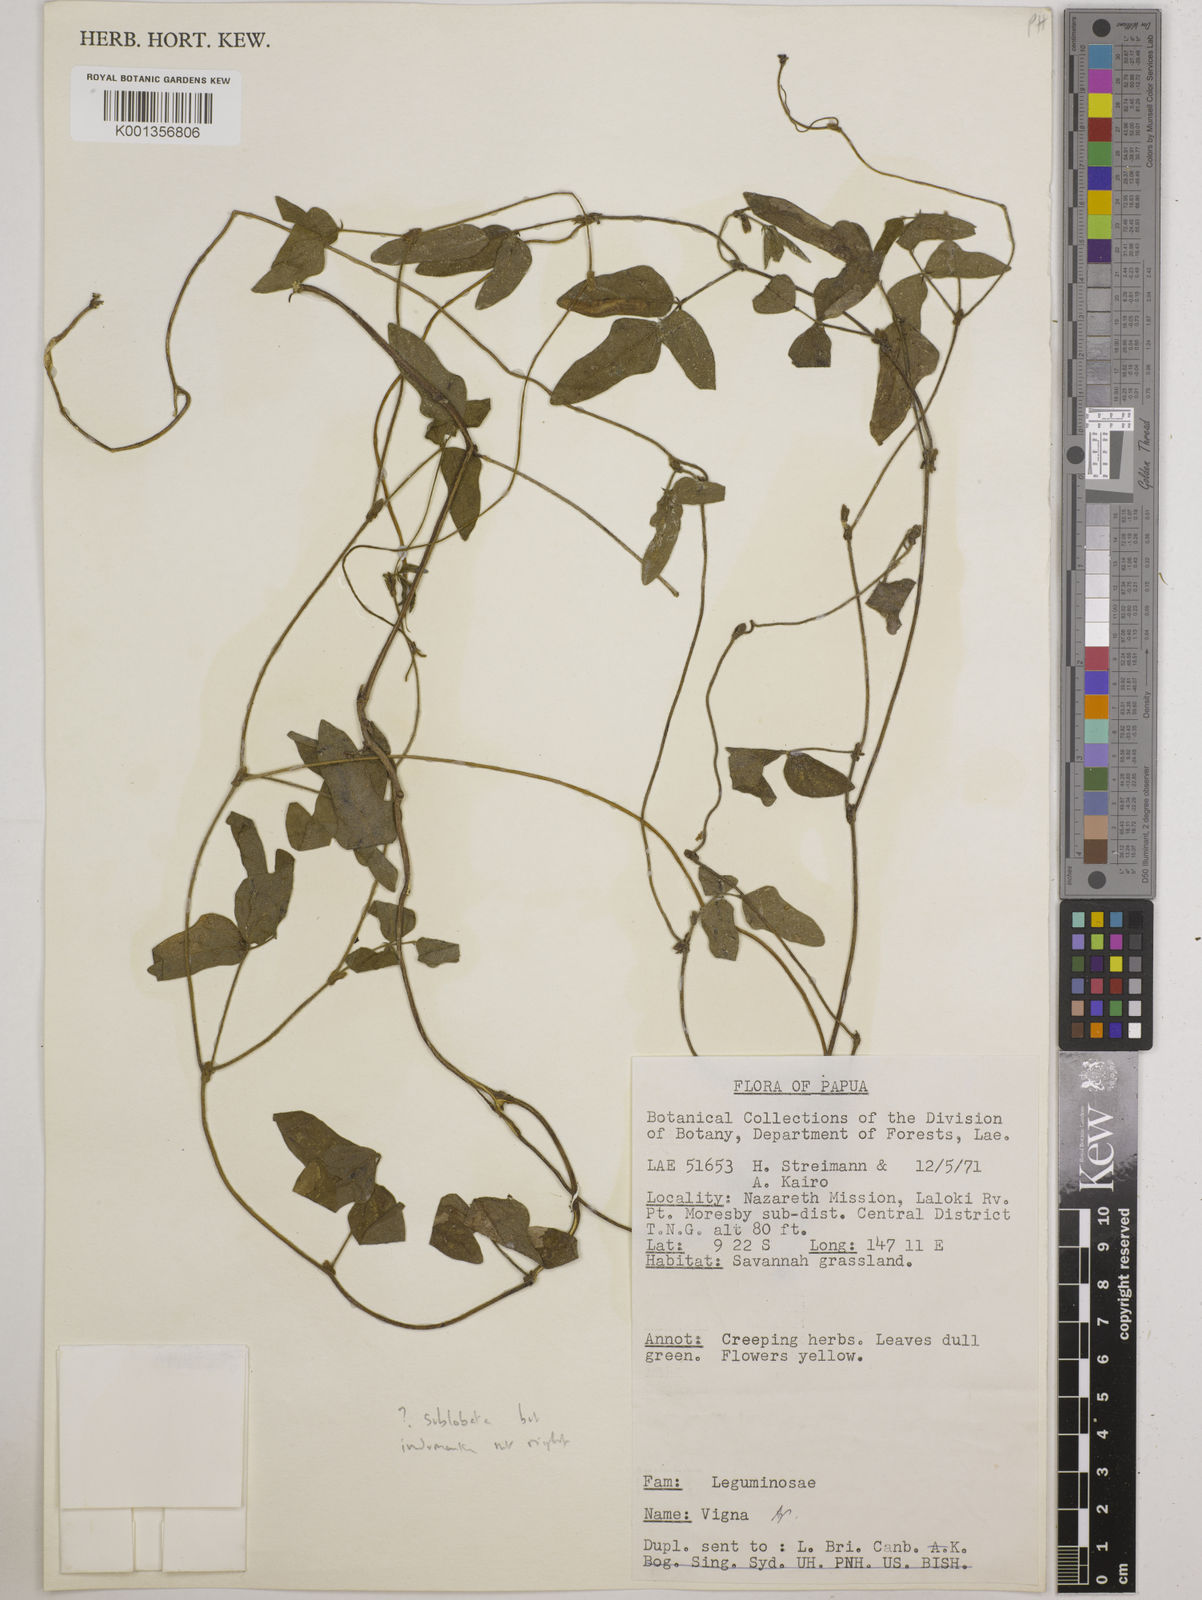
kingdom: Plantae
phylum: Tracheophyta
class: Magnoliopsida
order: Fabales
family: Fabaceae
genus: Vigna
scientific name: Vigna
